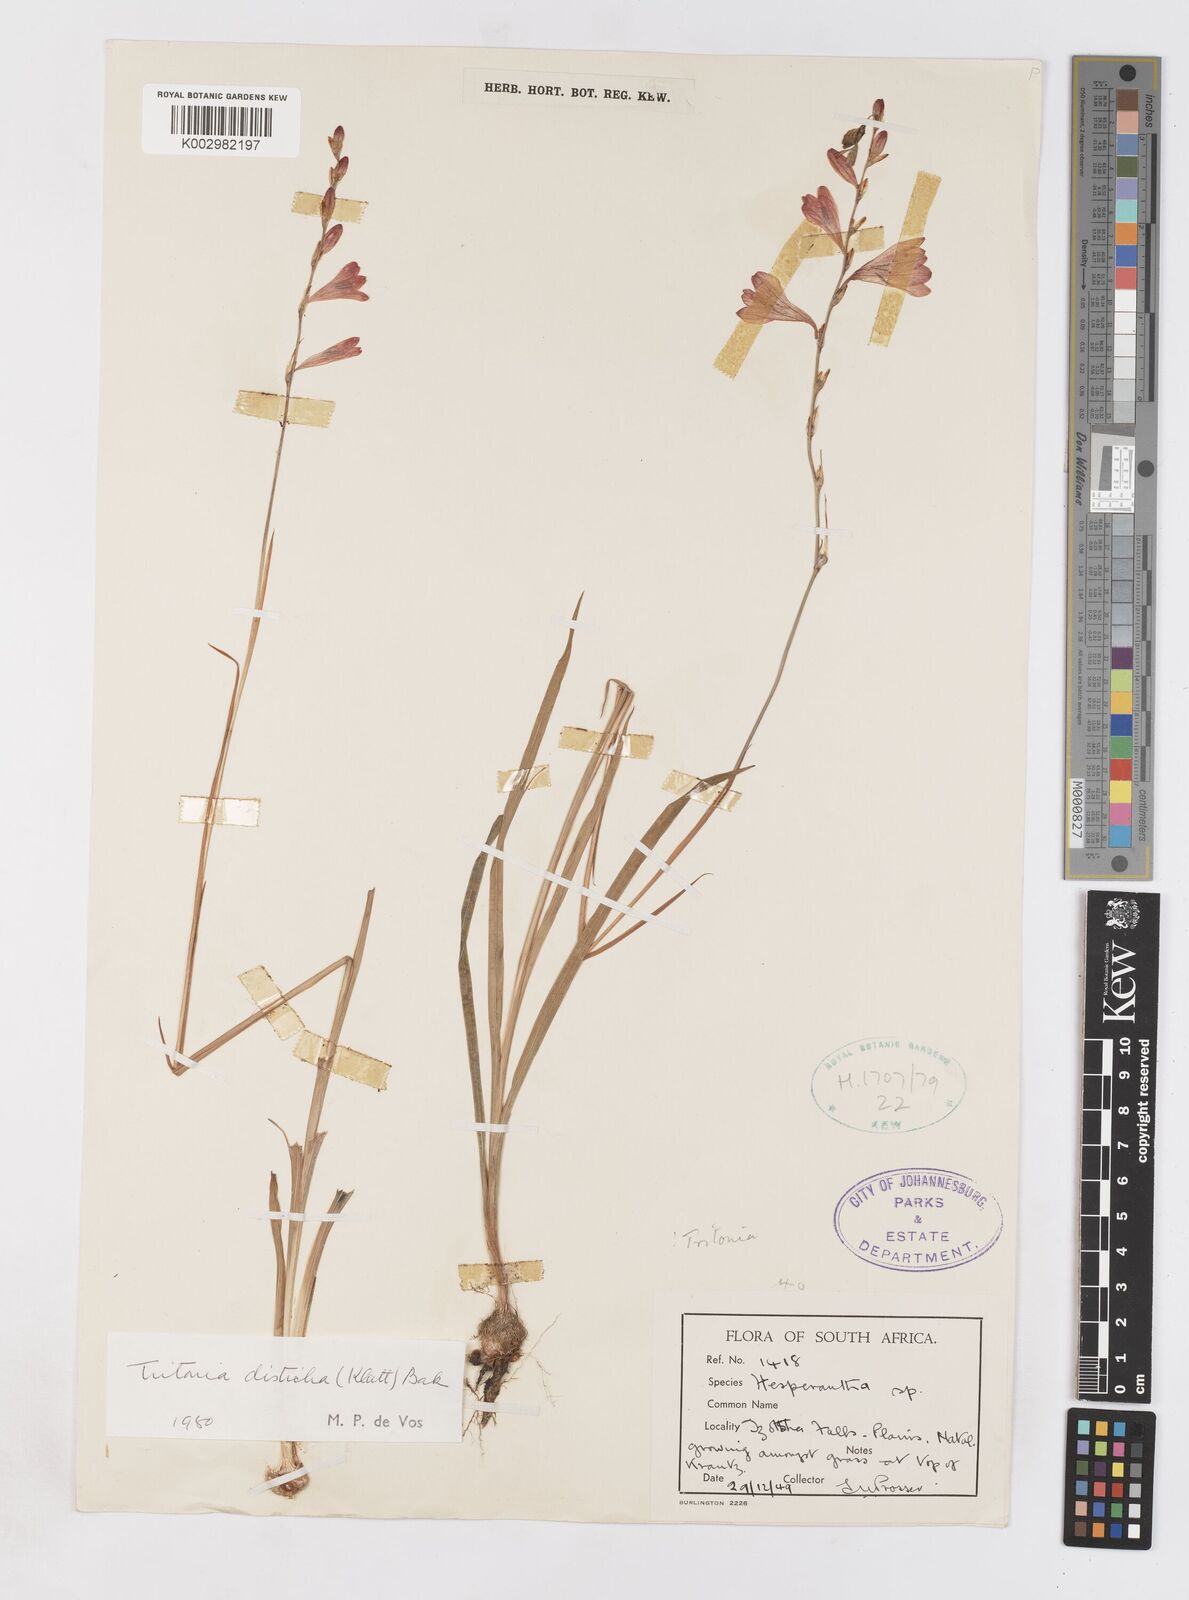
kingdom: Plantae
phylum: Tracheophyta
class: Liliopsida
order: Asparagales
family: Iridaceae
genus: Tritonia
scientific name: Tritonia disticha
